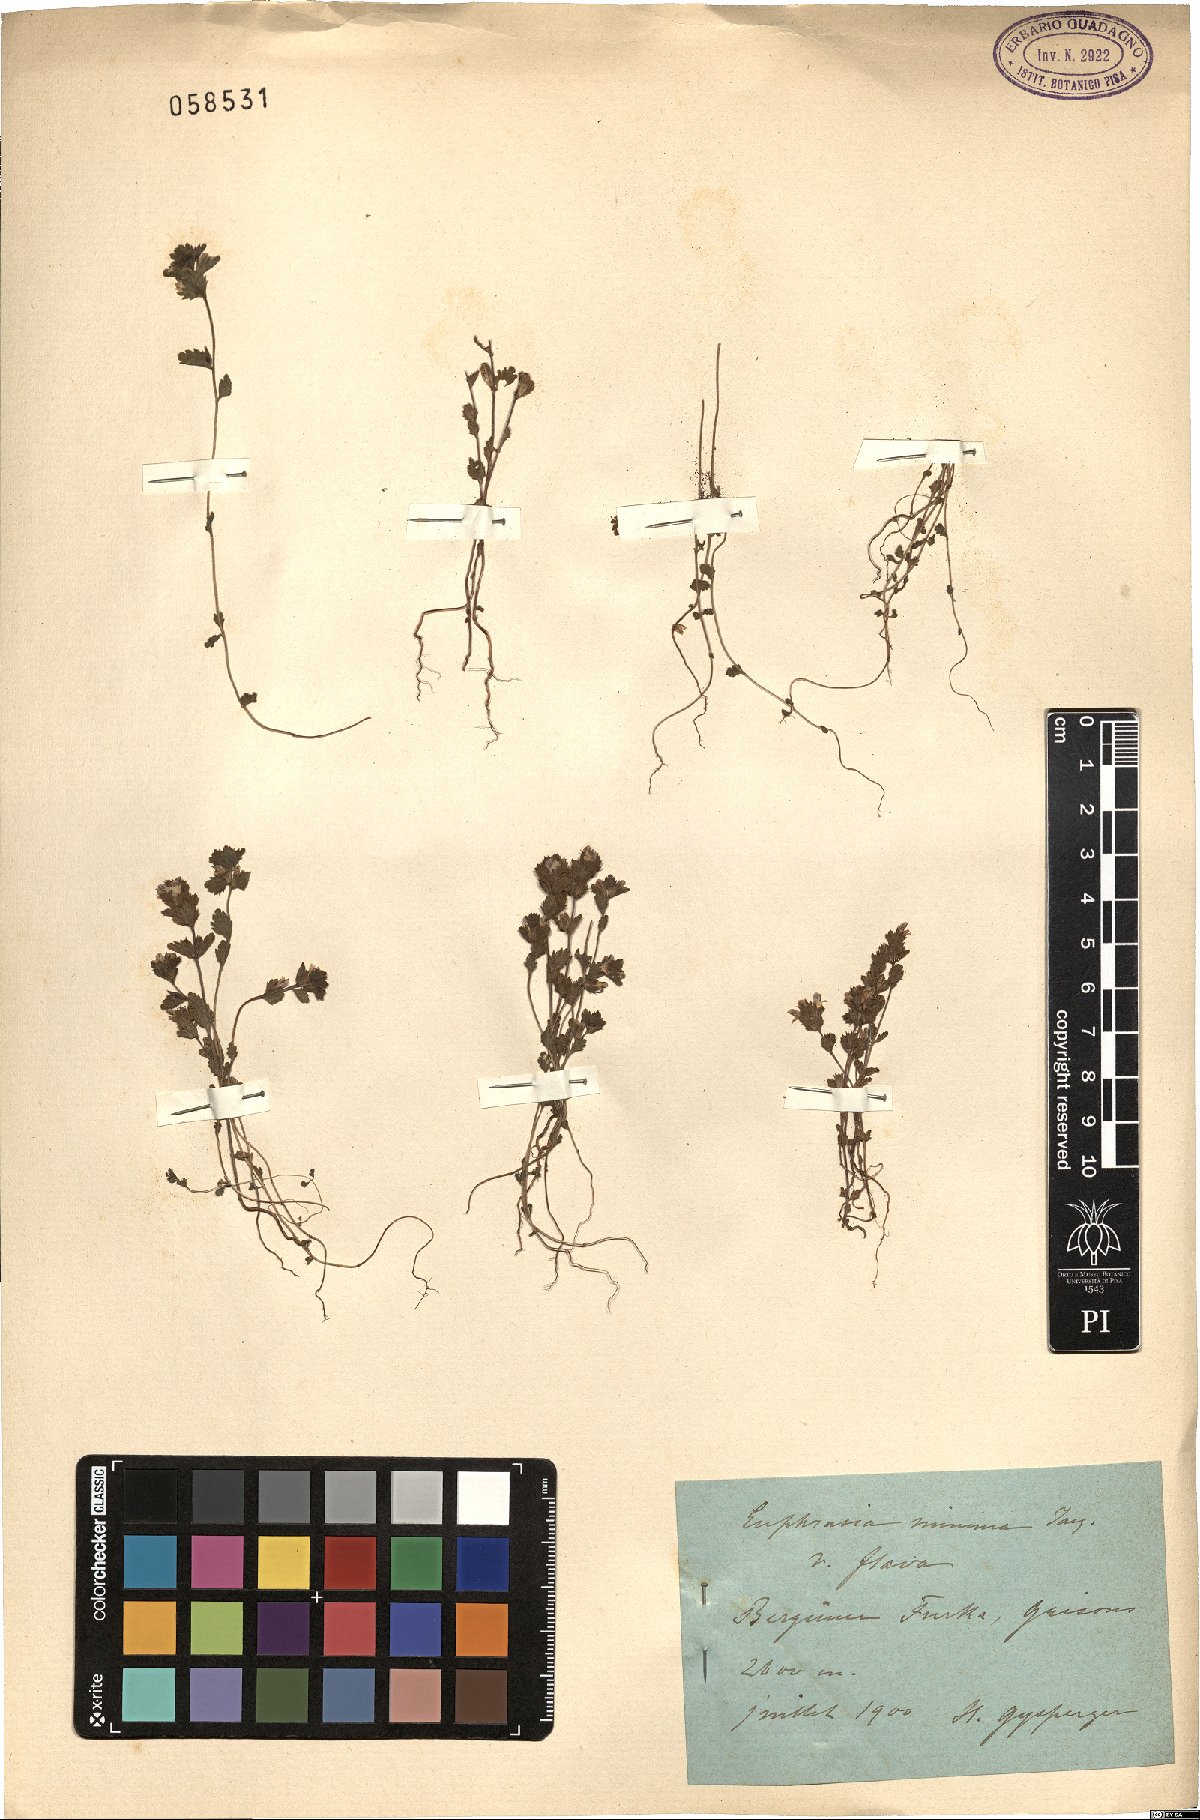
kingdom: Plantae
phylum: Tracheophyta
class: Magnoliopsida
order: Lamiales
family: Orobanchaceae
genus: Euphrasia
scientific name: Euphrasia minima
